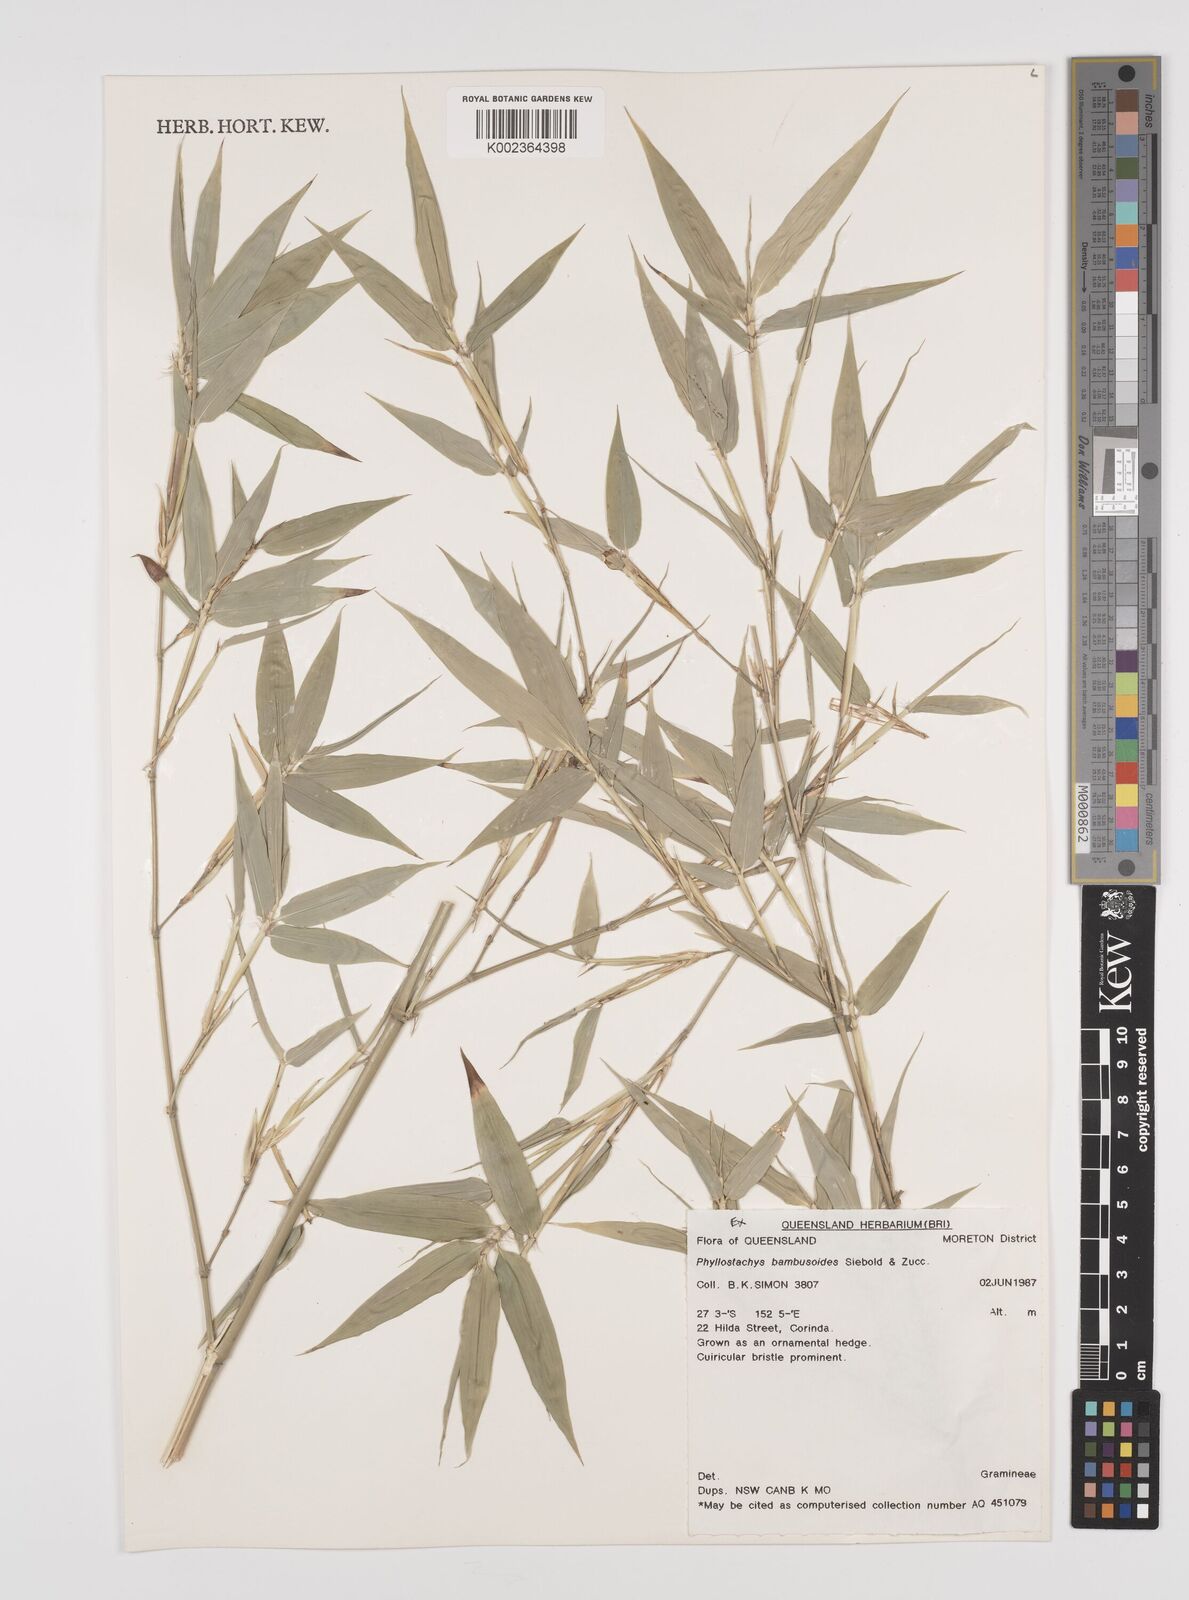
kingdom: Plantae
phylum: Tracheophyta
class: Liliopsida
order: Poales
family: Poaceae
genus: Phyllostachys
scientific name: Phyllostachys reticulata
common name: Bamboo
